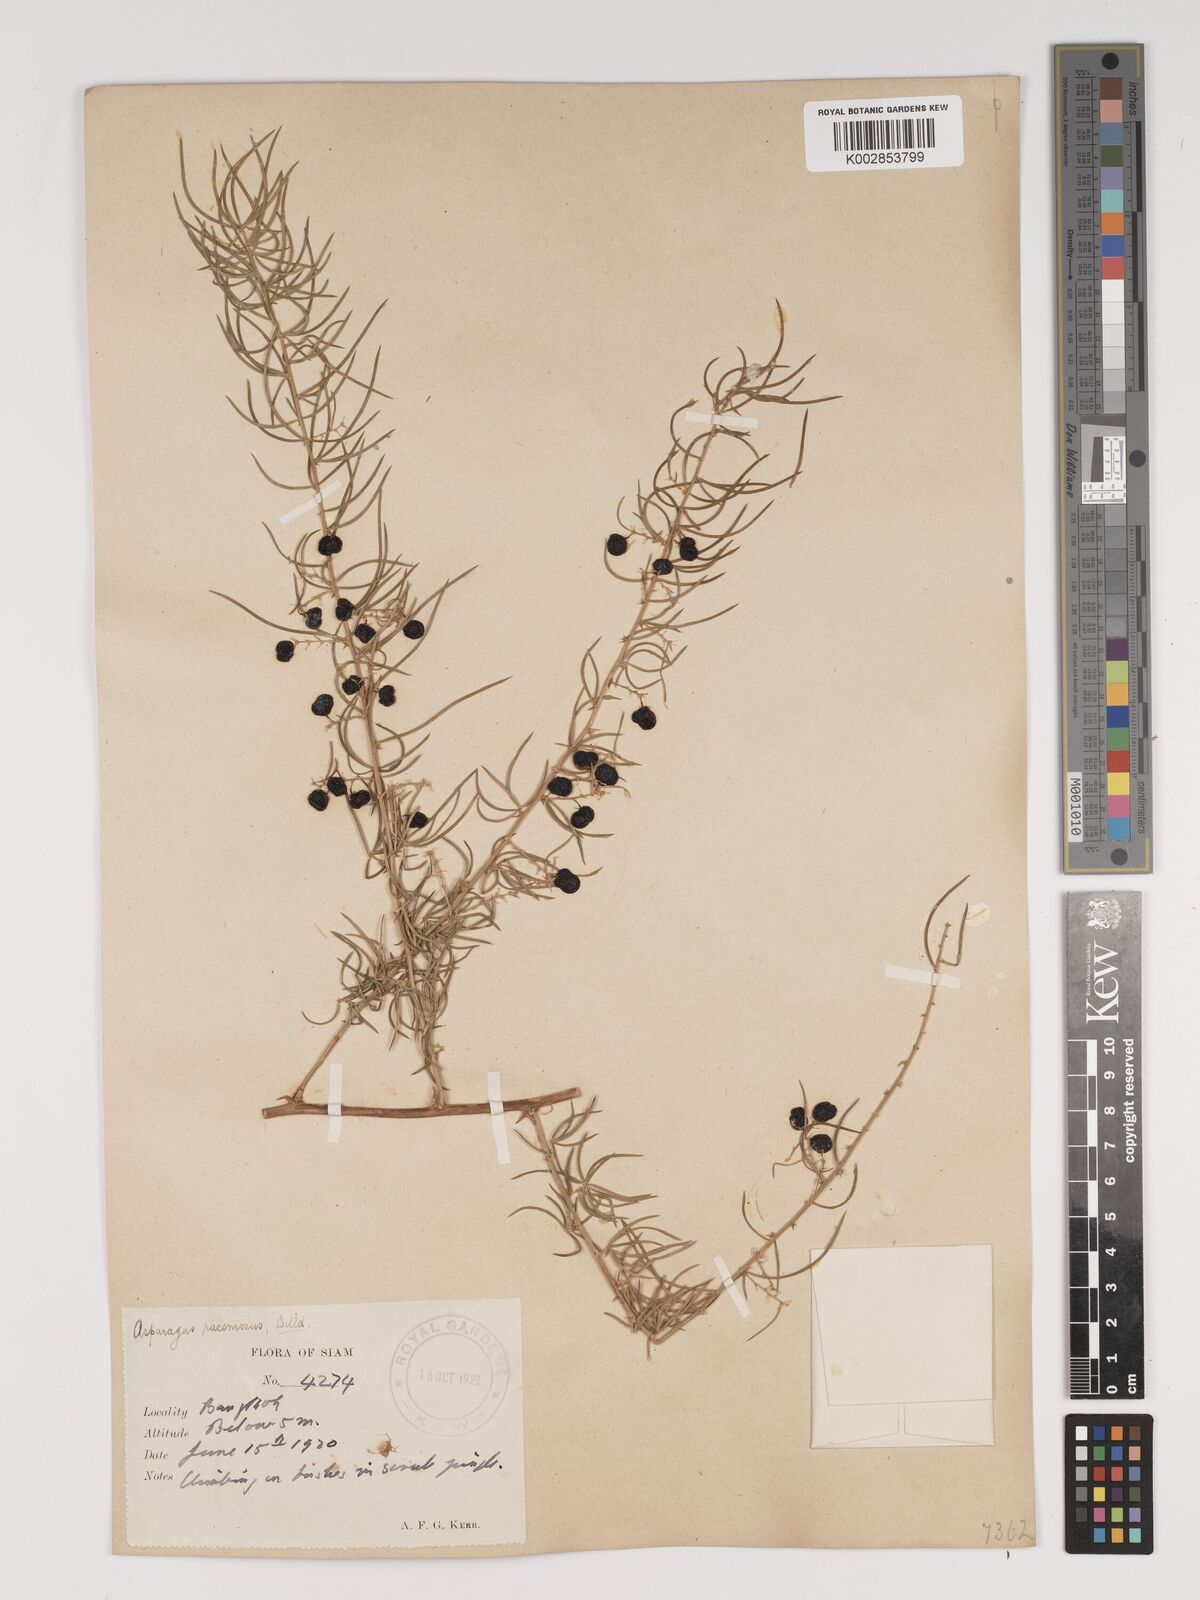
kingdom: Plantae
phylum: Tracheophyta
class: Liliopsida
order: Asparagales
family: Asparagaceae
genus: Asparagus
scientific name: Asparagus racemosus
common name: Asparagus-fern
